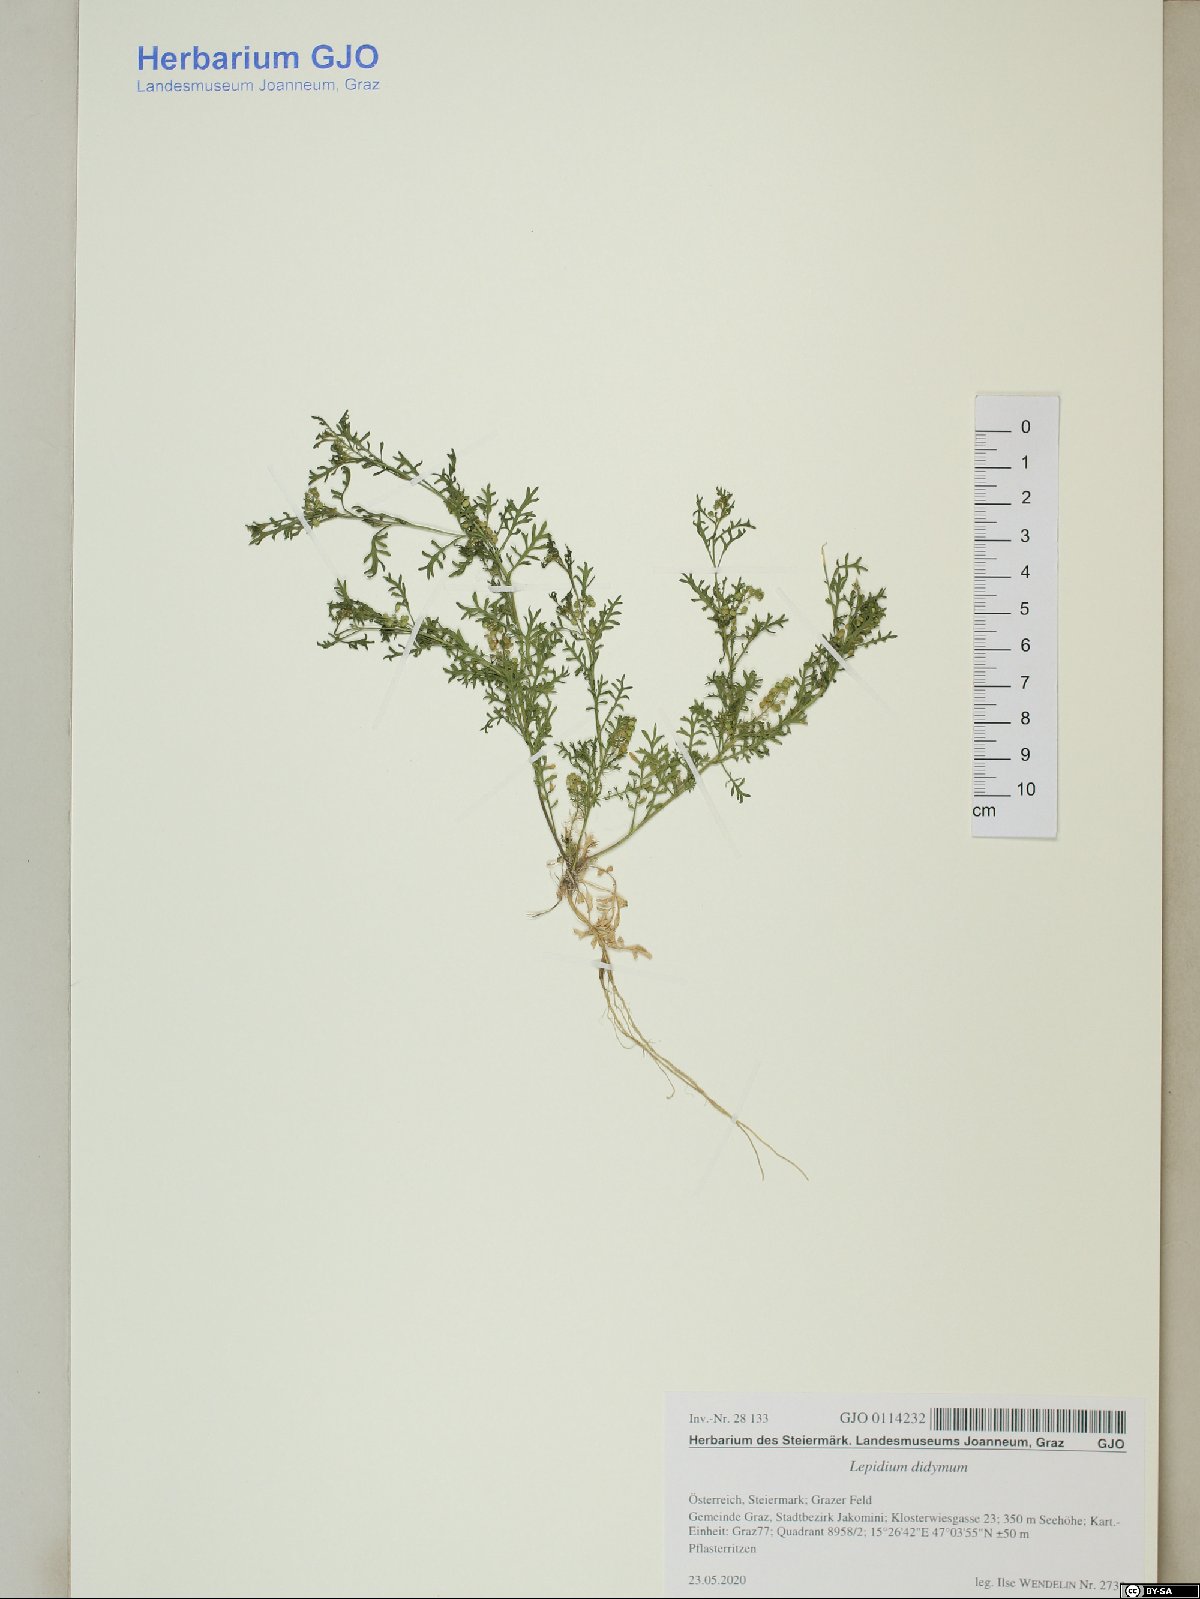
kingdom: Plantae
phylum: Tracheophyta
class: Magnoliopsida
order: Brassicales
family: Brassicaceae
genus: Lepidium
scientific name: Lepidium didymum
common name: Lesser swinecress
